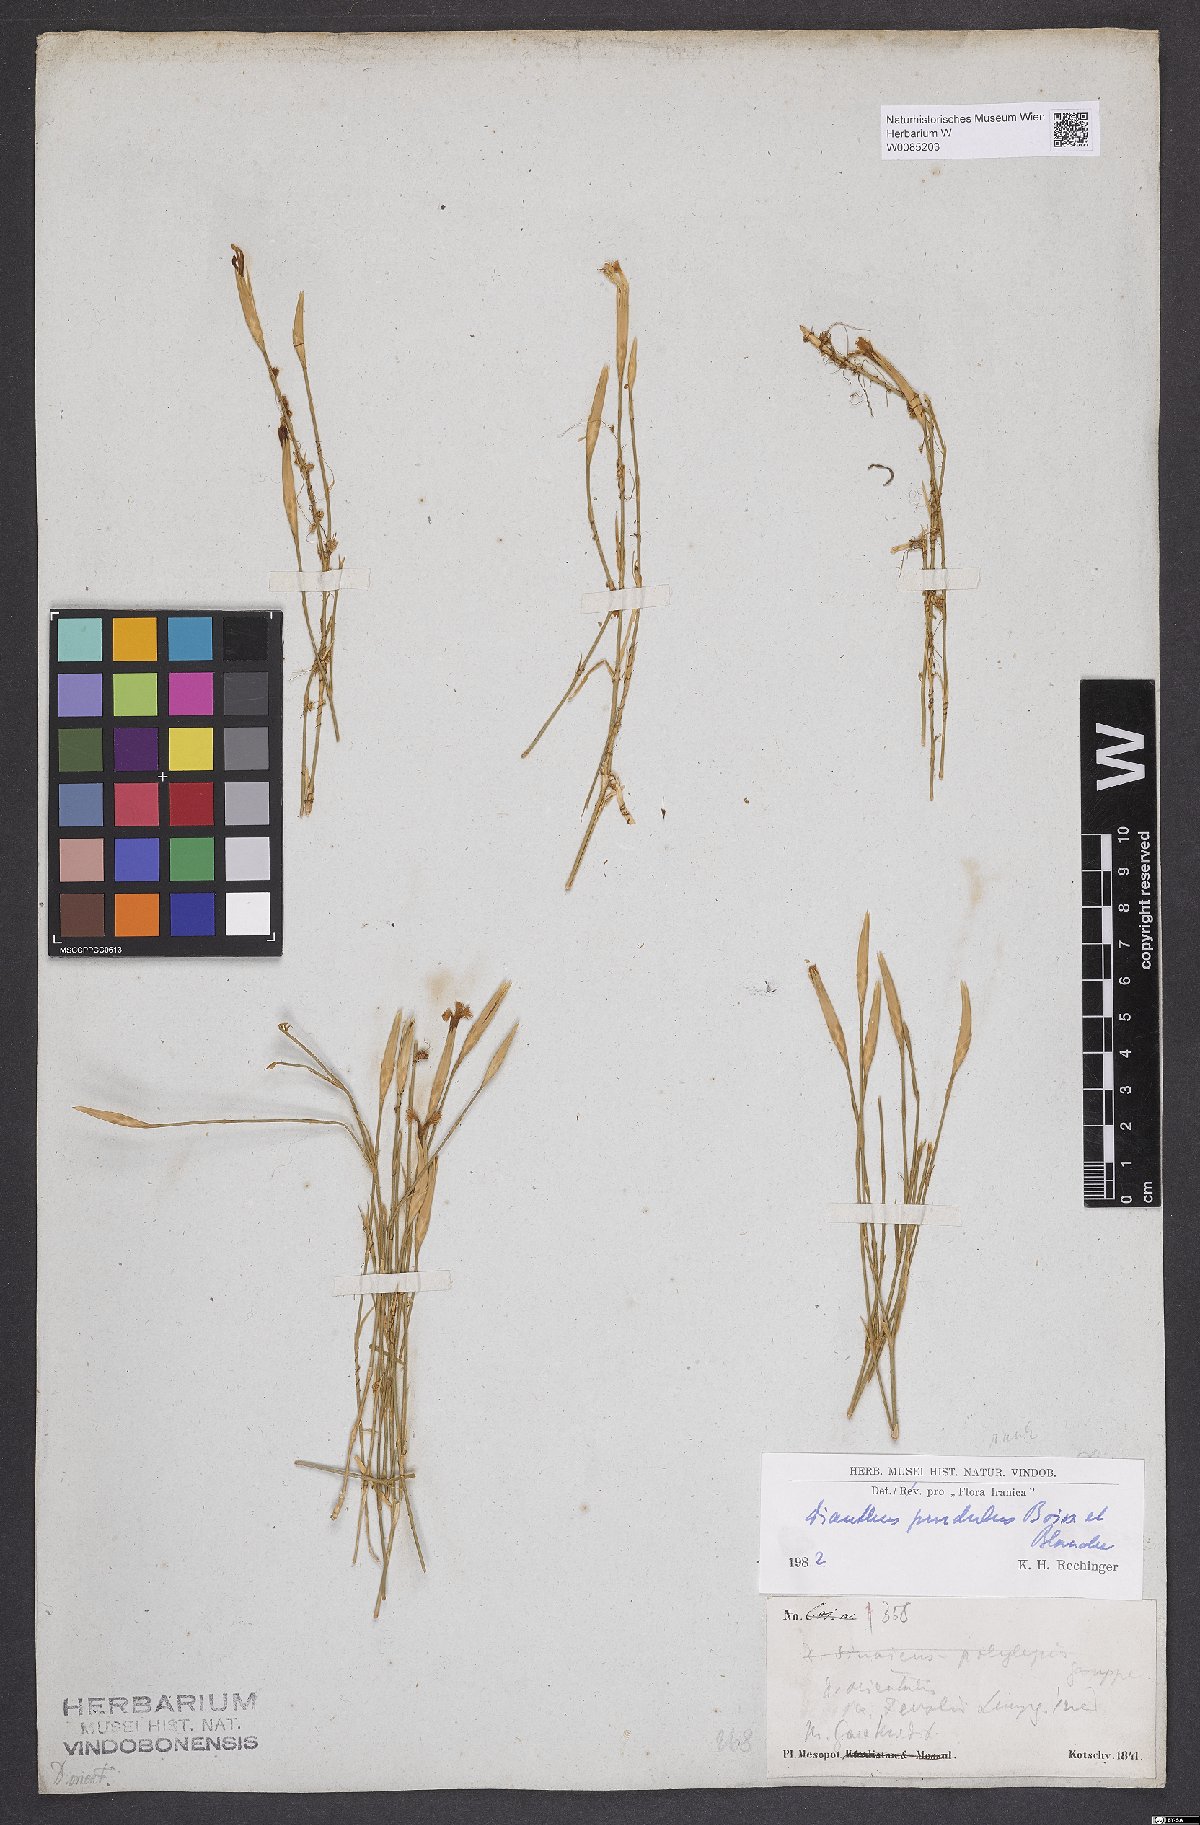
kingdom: Plantae
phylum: Tracheophyta
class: Magnoliopsida
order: Caryophyllales
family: Caryophyllaceae
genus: Dianthus
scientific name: Dianthus pendulus
